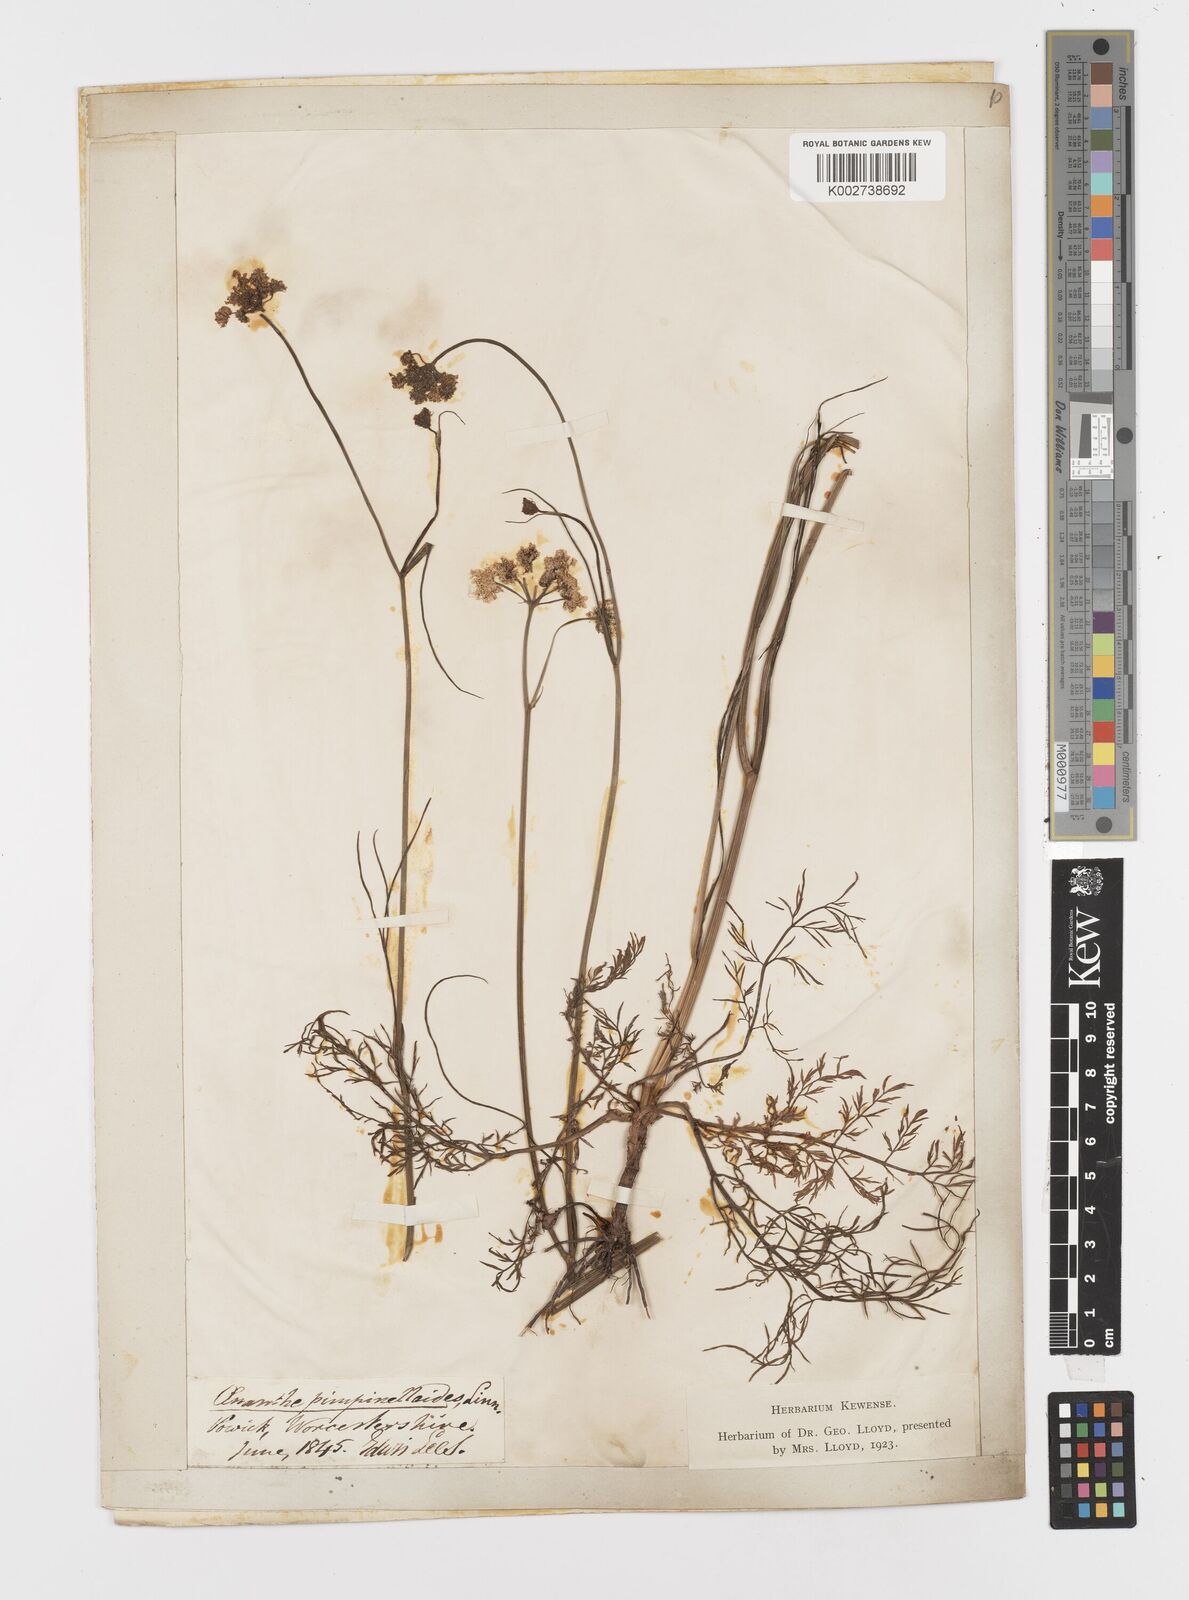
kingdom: Plantae
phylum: Tracheophyta
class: Magnoliopsida
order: Apiales
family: Apiaceae
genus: Oenanthe
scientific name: Oenanthe pimpinelloides
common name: Corky-fruited water-dropwort
